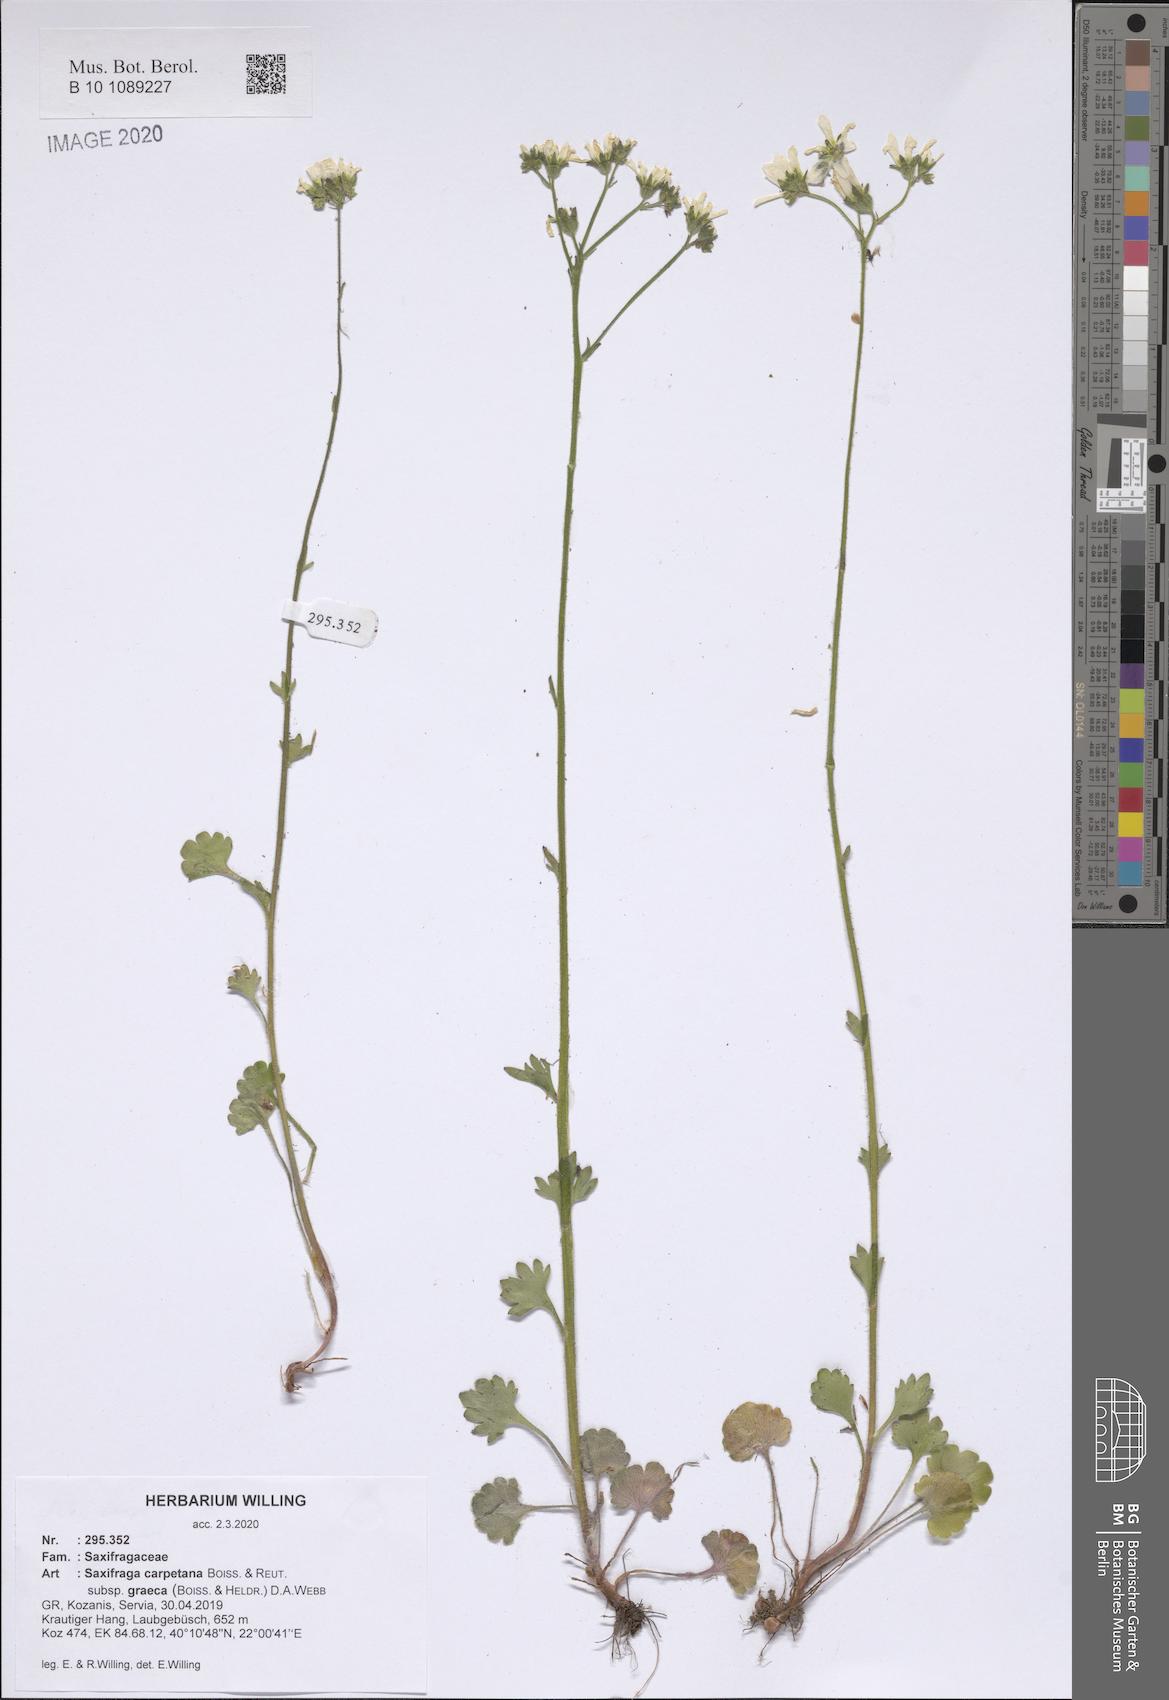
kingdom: Plantae
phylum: Tracheophyta
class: Magnoliopsida
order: Saxifragales
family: Saxifragaceae
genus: Saxifraga
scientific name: Saxifraga carpetana
